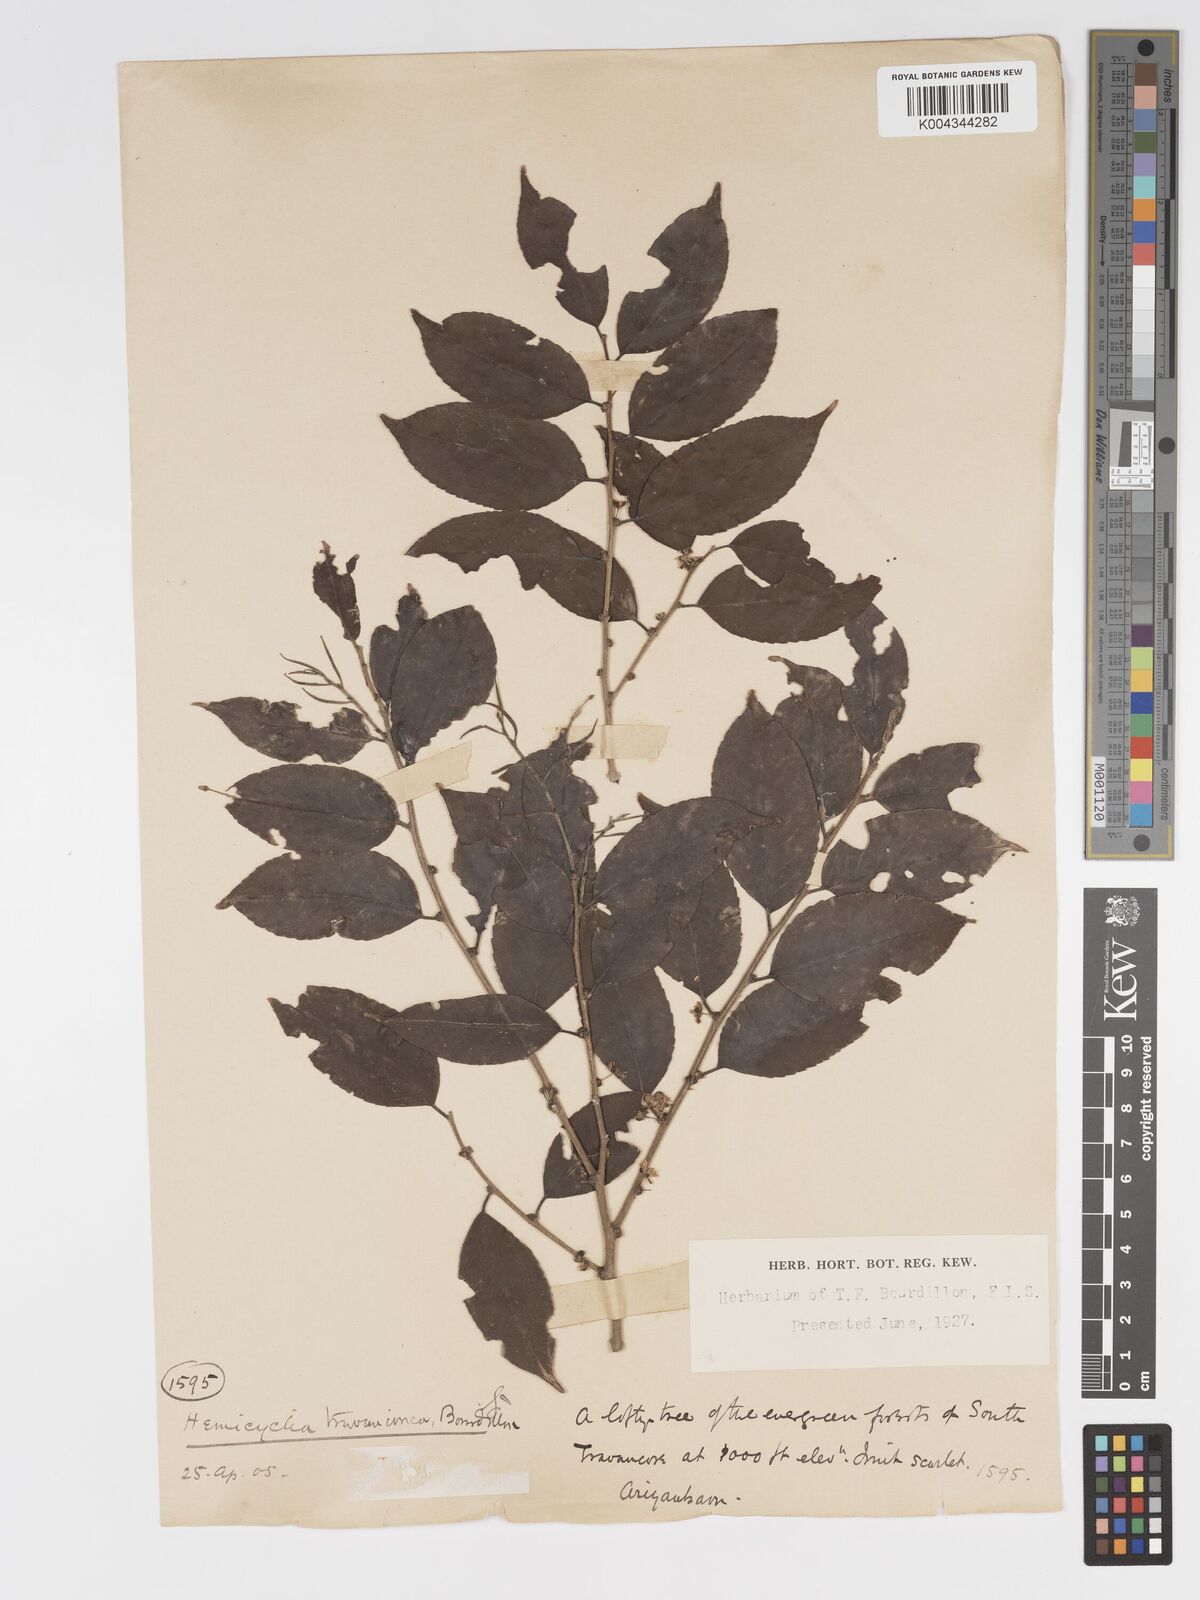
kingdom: Plantae
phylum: Tracheophyta
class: Magnoliopsida
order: Malpighiales
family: Putranjivaceae
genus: Drypetes
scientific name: Drypetes gardneri
